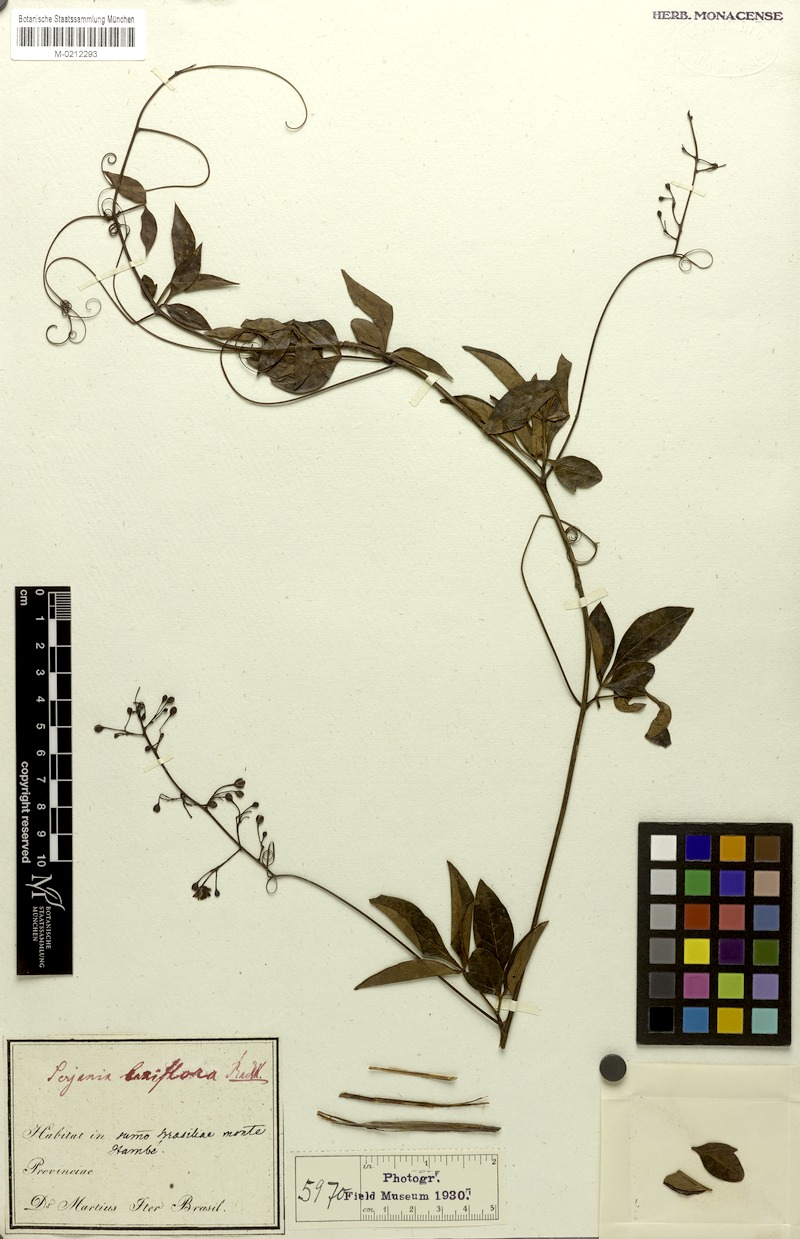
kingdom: Plantae
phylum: Tracheophyta
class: Magnoliopsida
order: Sapindales
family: Sapindaceae
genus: Serjania
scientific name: Serjania laxiflora
